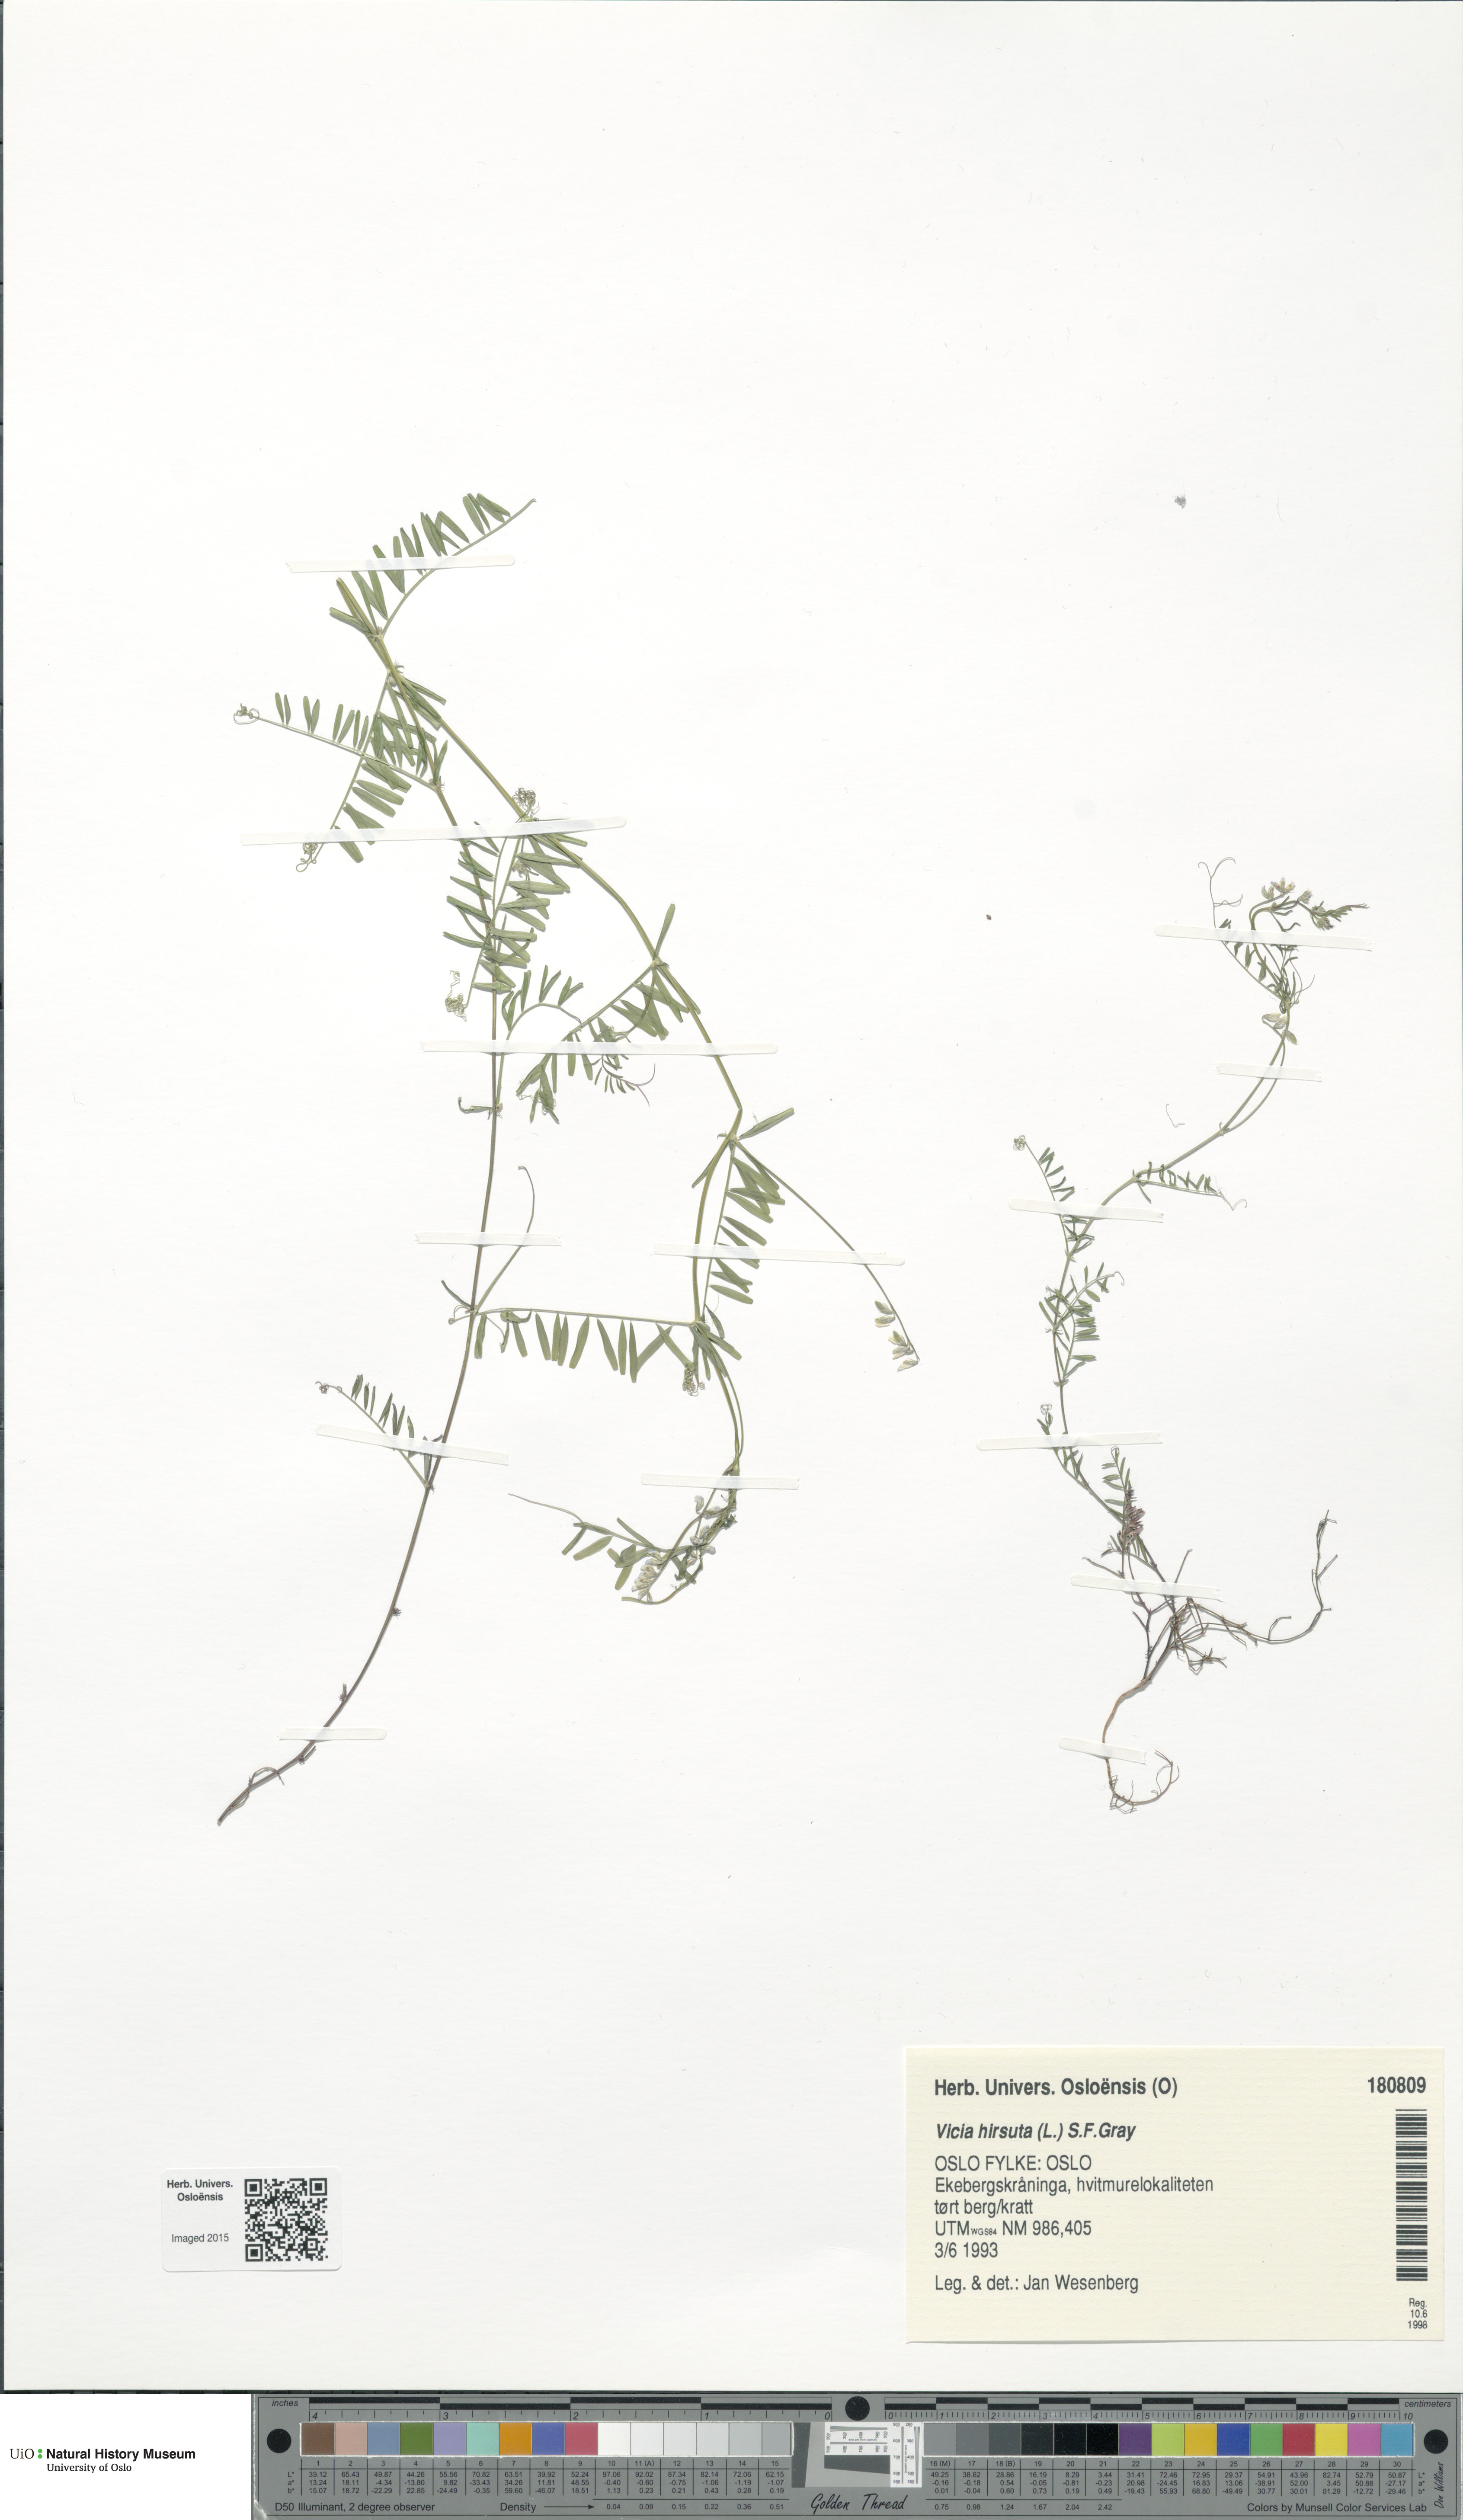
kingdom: Plantae
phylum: Tracheophyta
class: Magnoliopsida
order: Fabales
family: Fabaceae
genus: Vicia
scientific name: Vicia hirsuta
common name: Tiny vetch
